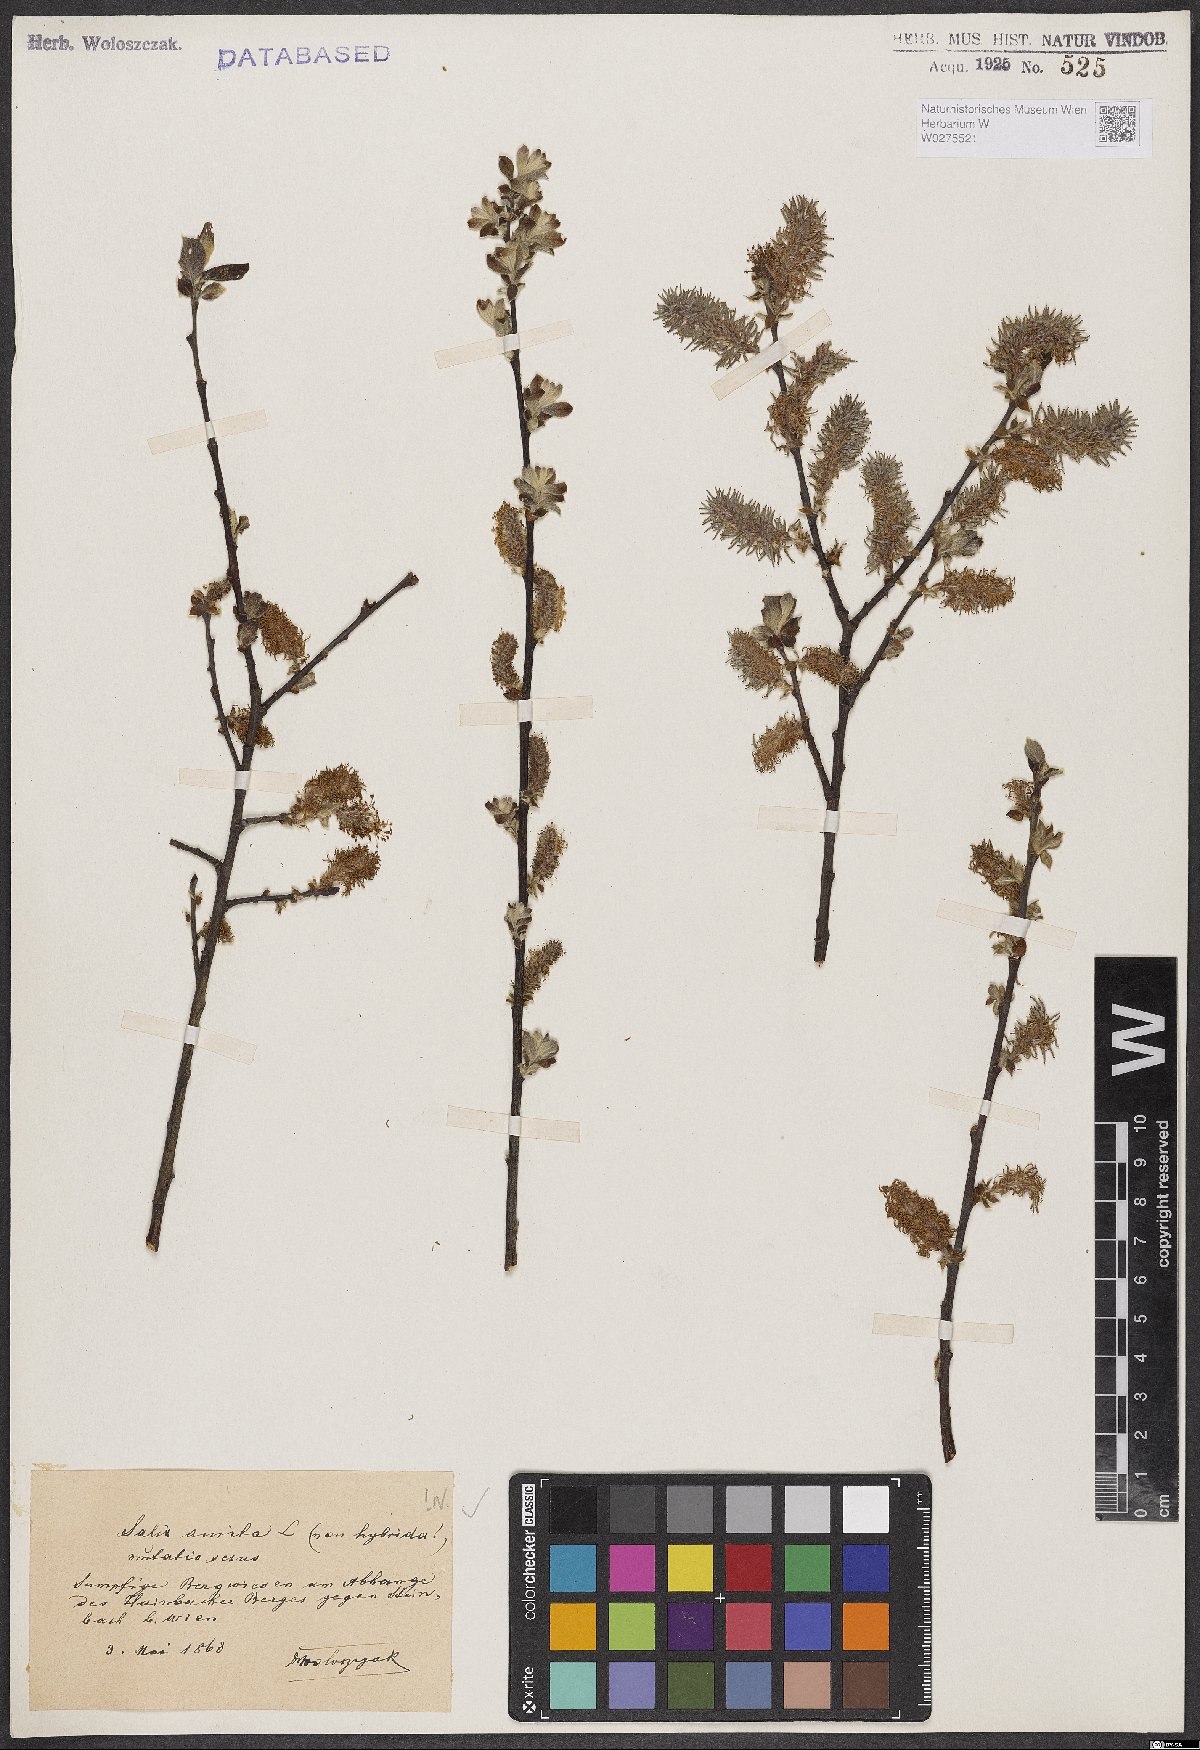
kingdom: Plantae
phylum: Tracheophyta
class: Magnoliopsida
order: Malpighiales
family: Salicaceae
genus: Salix
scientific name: Salix aurita
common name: Eared willow
